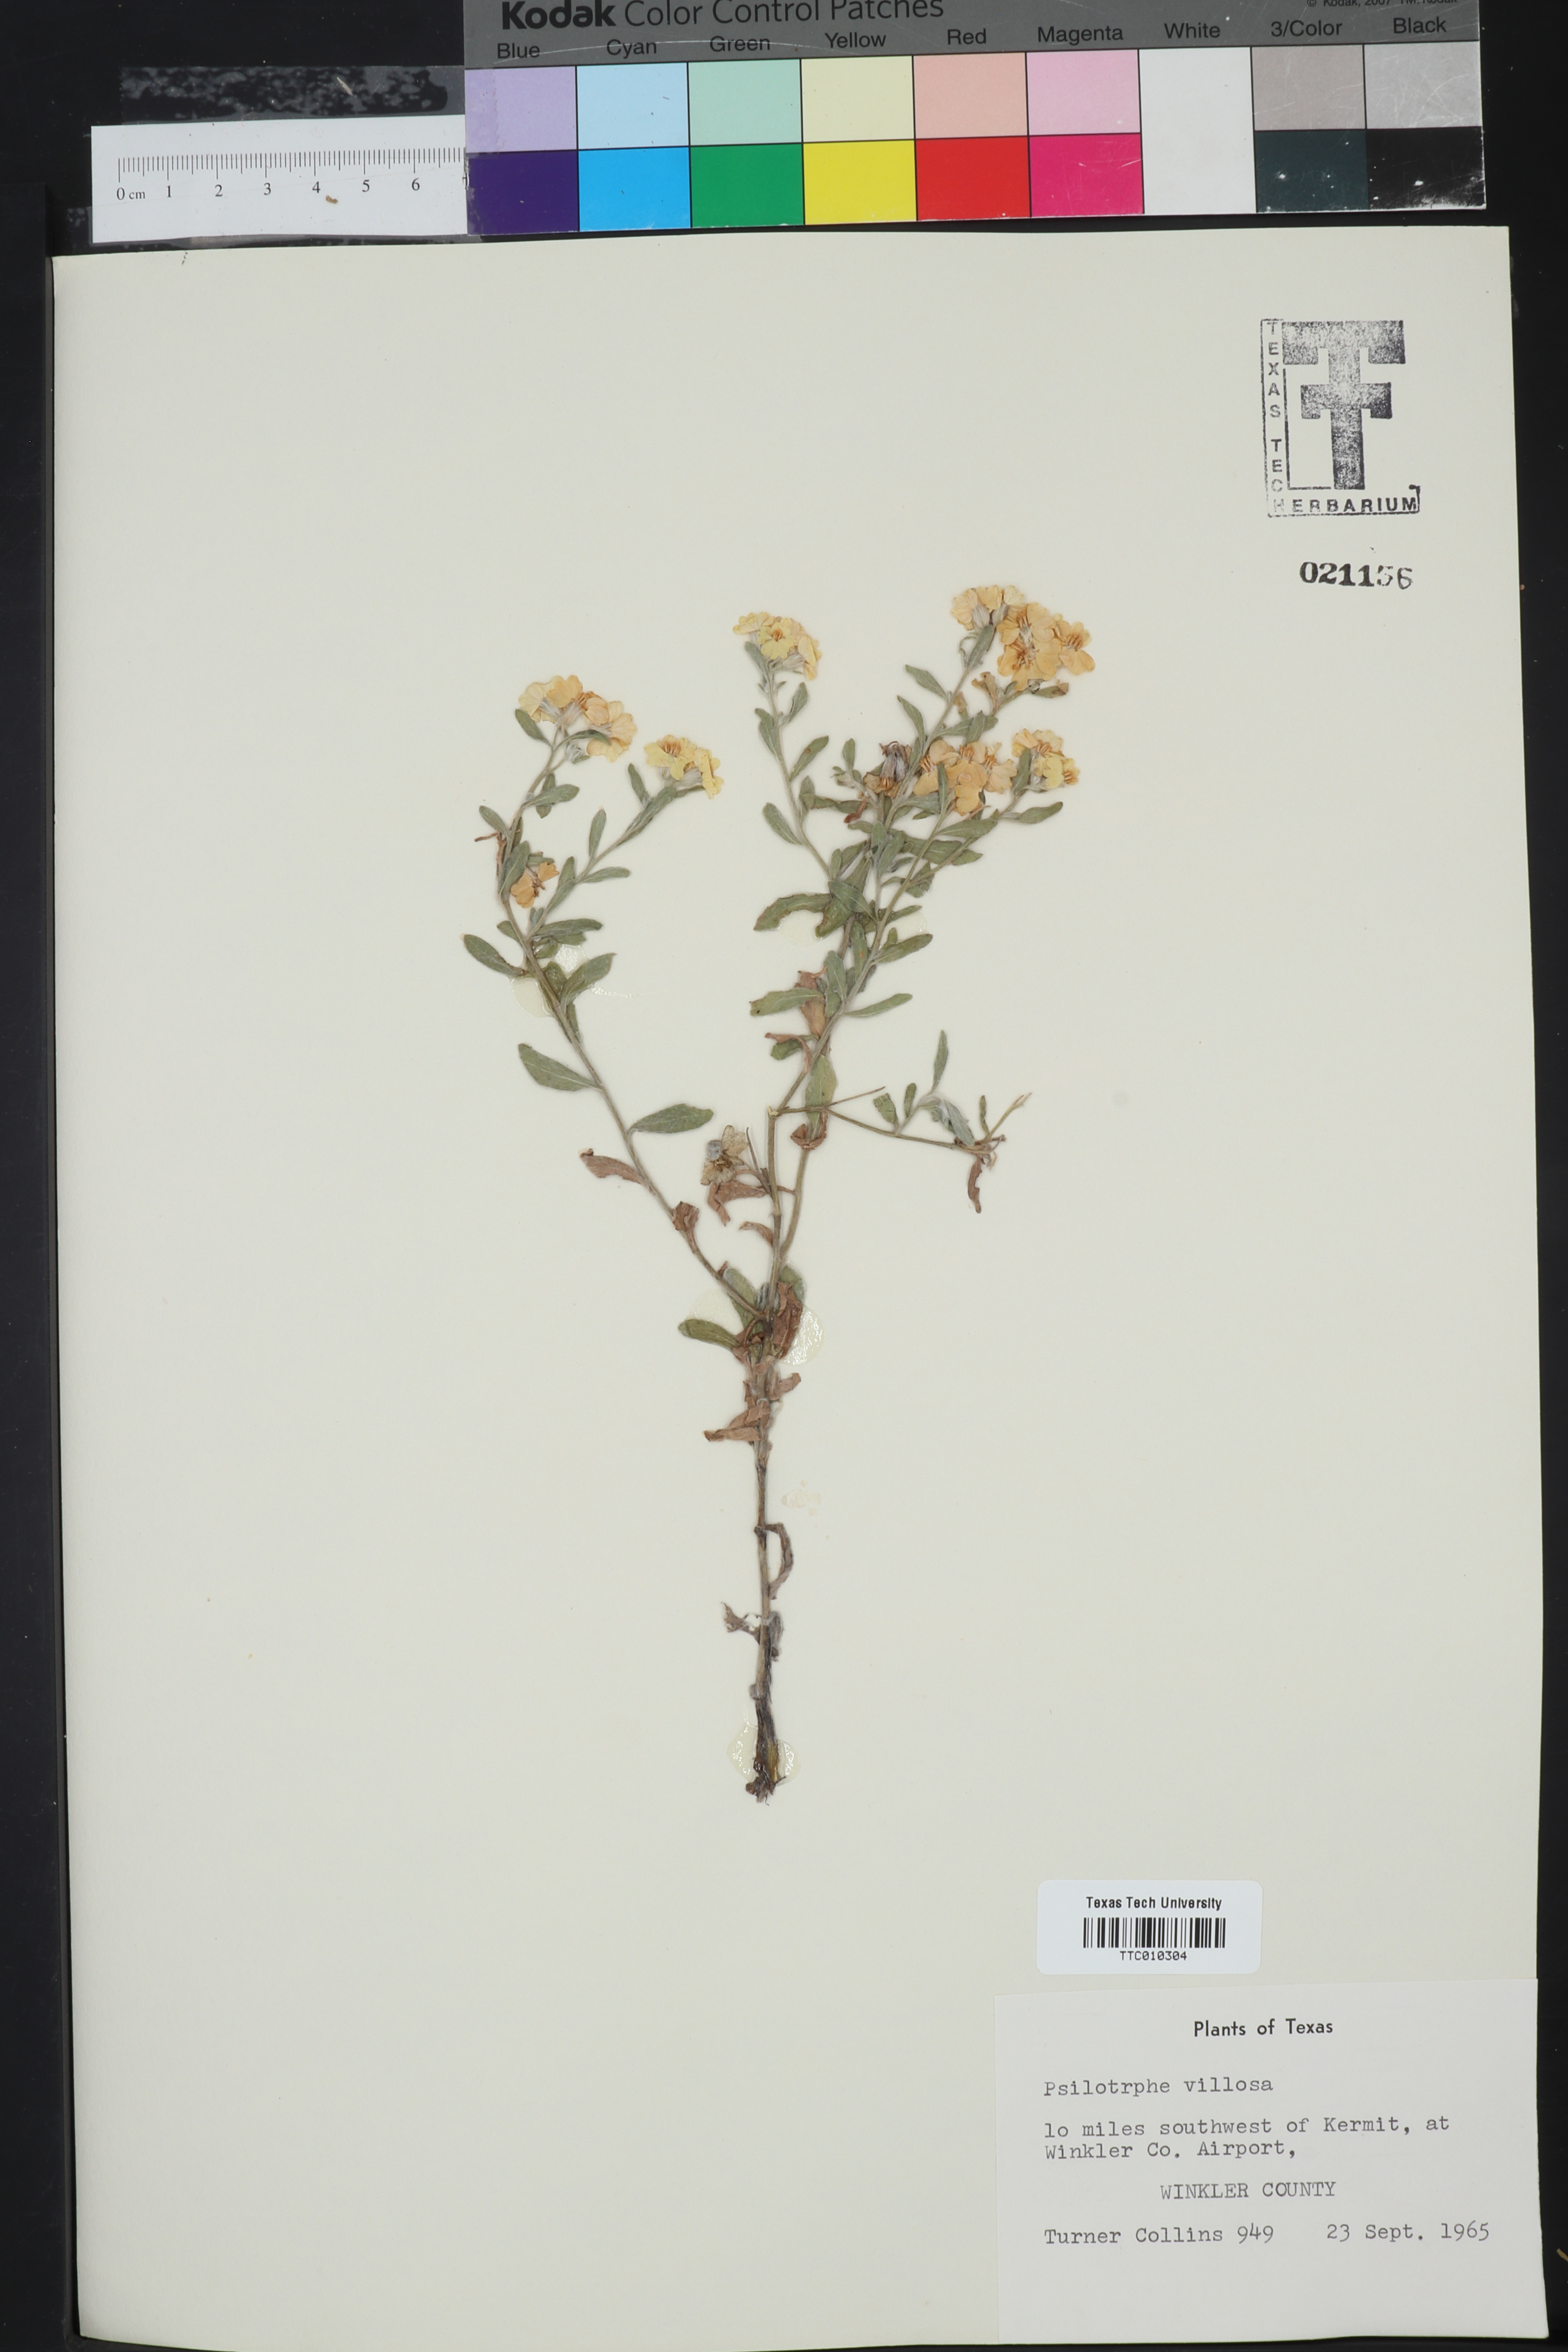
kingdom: Plantae
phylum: Tracheophyta
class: Magnoliopsida
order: Asterales
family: Asteraceae
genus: Psilostrophe
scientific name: Psilostrophe villosa
